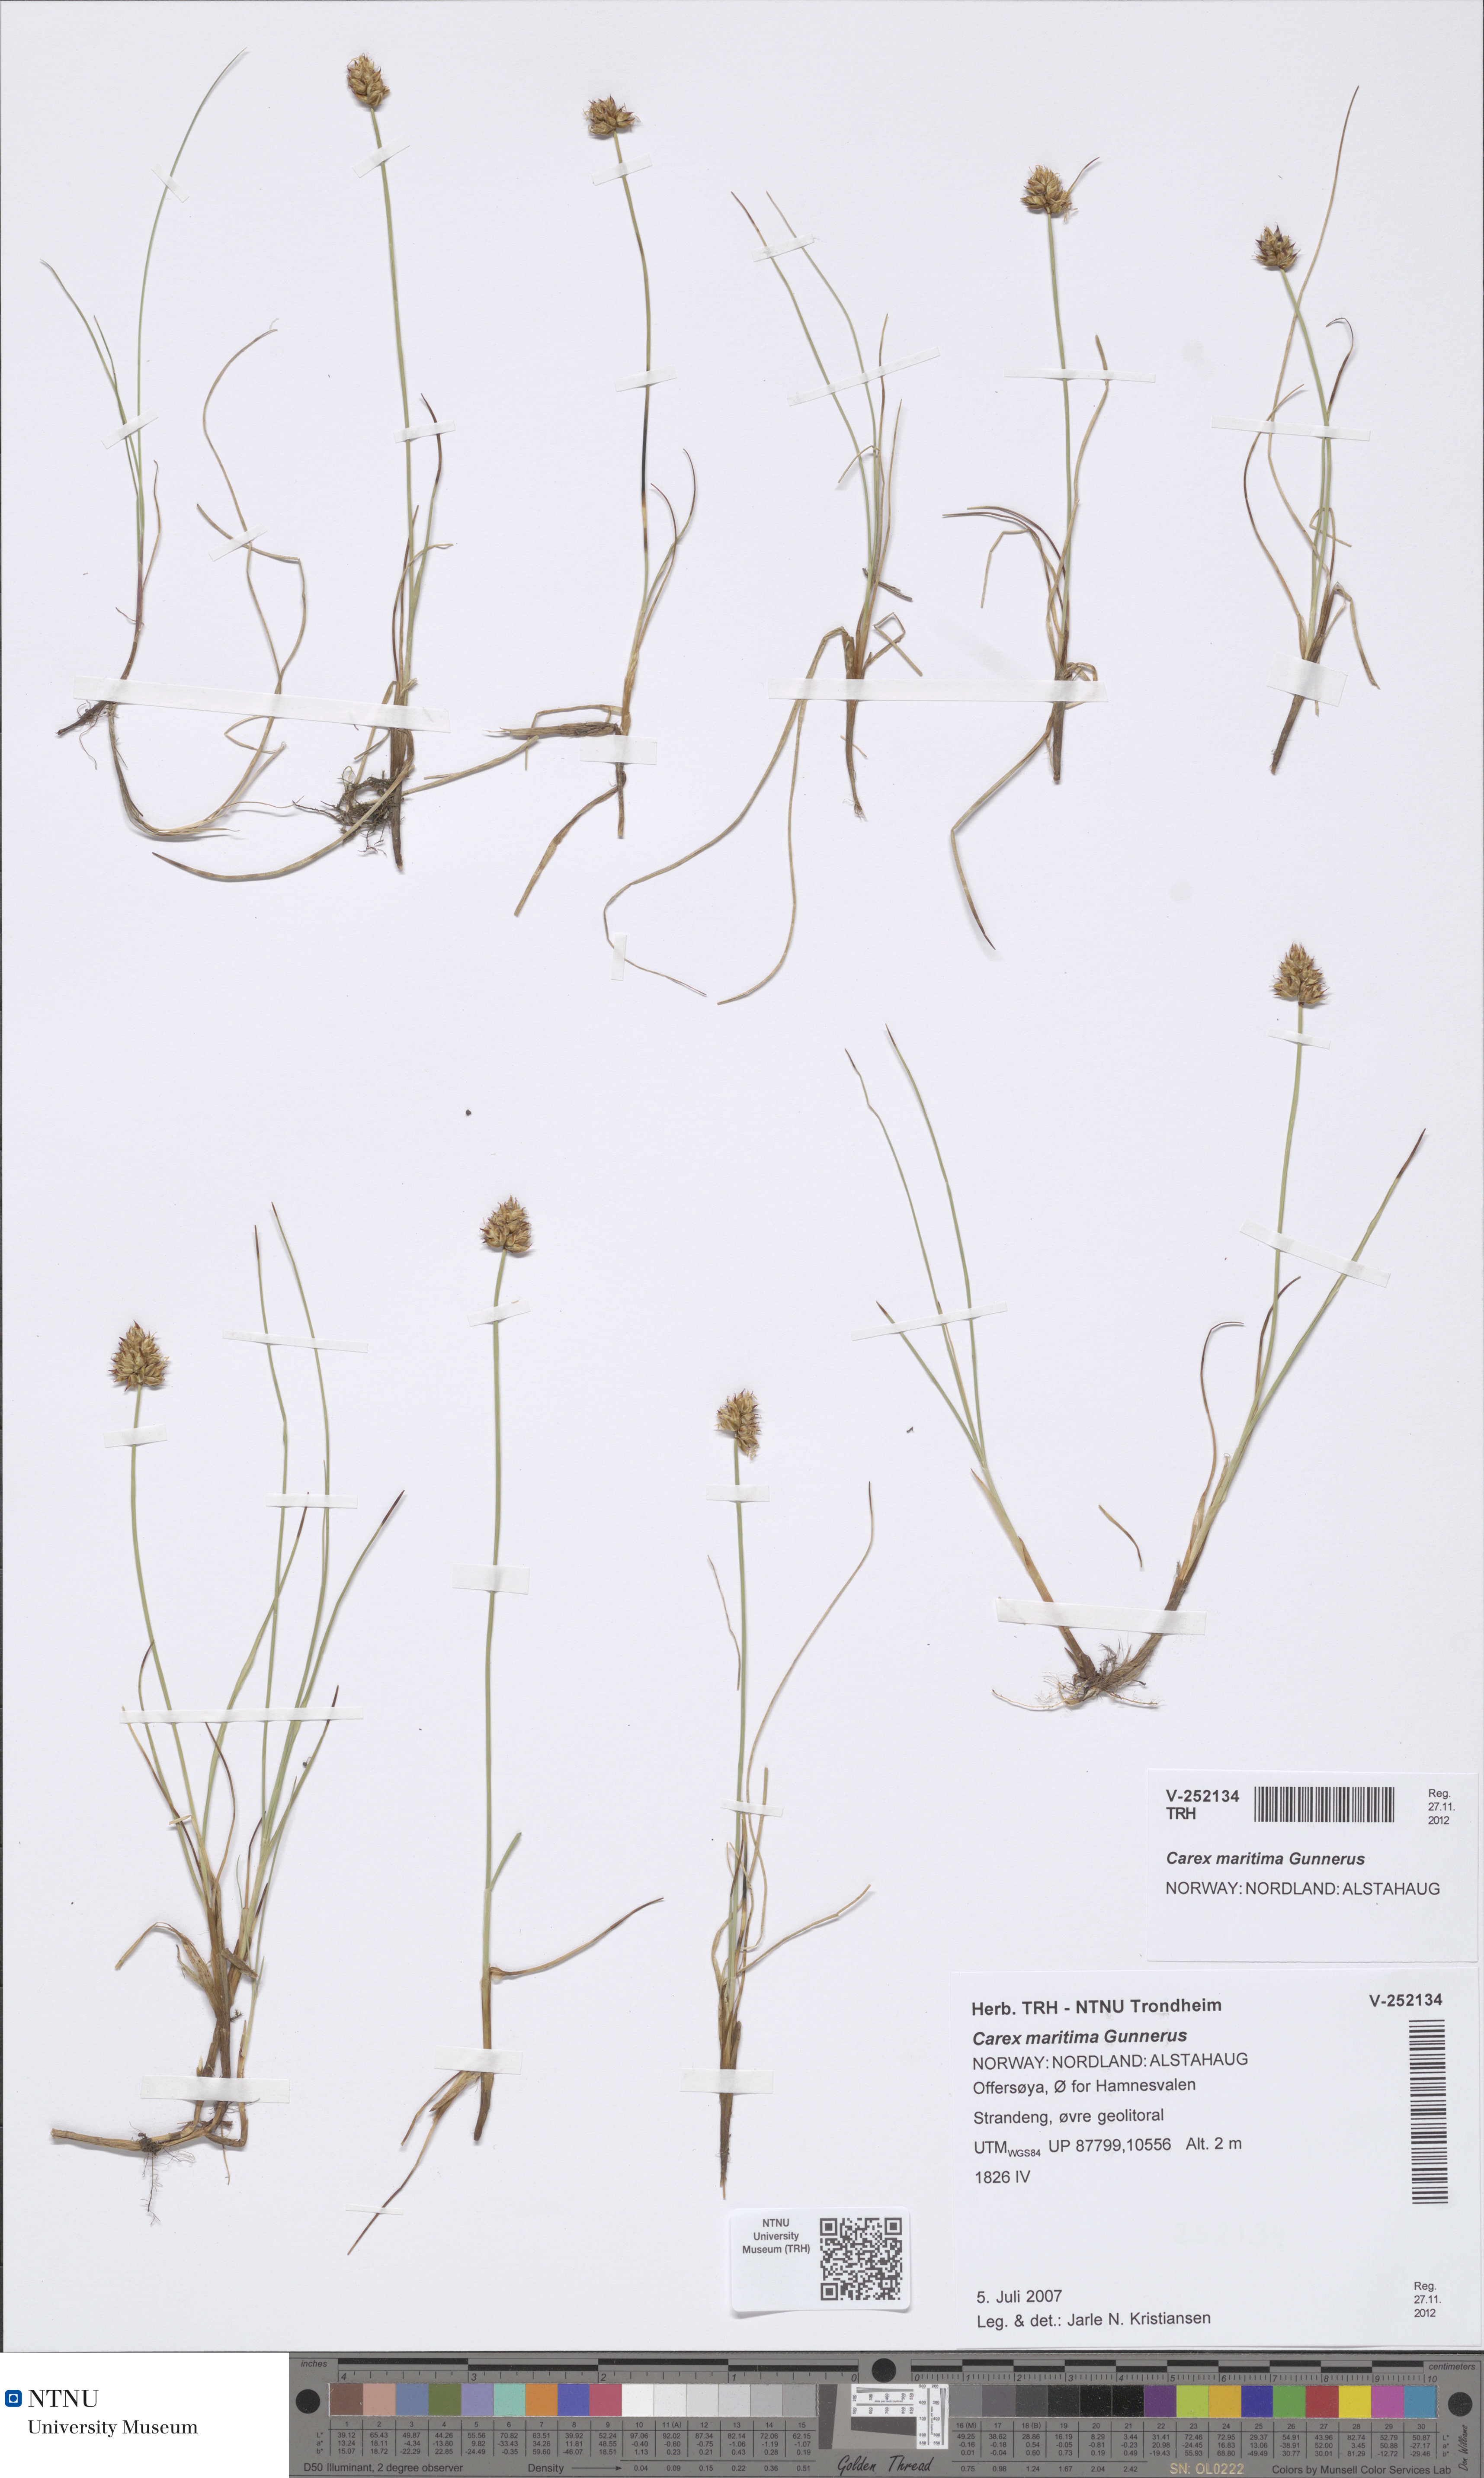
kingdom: Plantae
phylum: Tracheophyta
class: Liliopsida
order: Poales
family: Cyperaceae
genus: Carex
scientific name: Carex maritima
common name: Curved sedge
